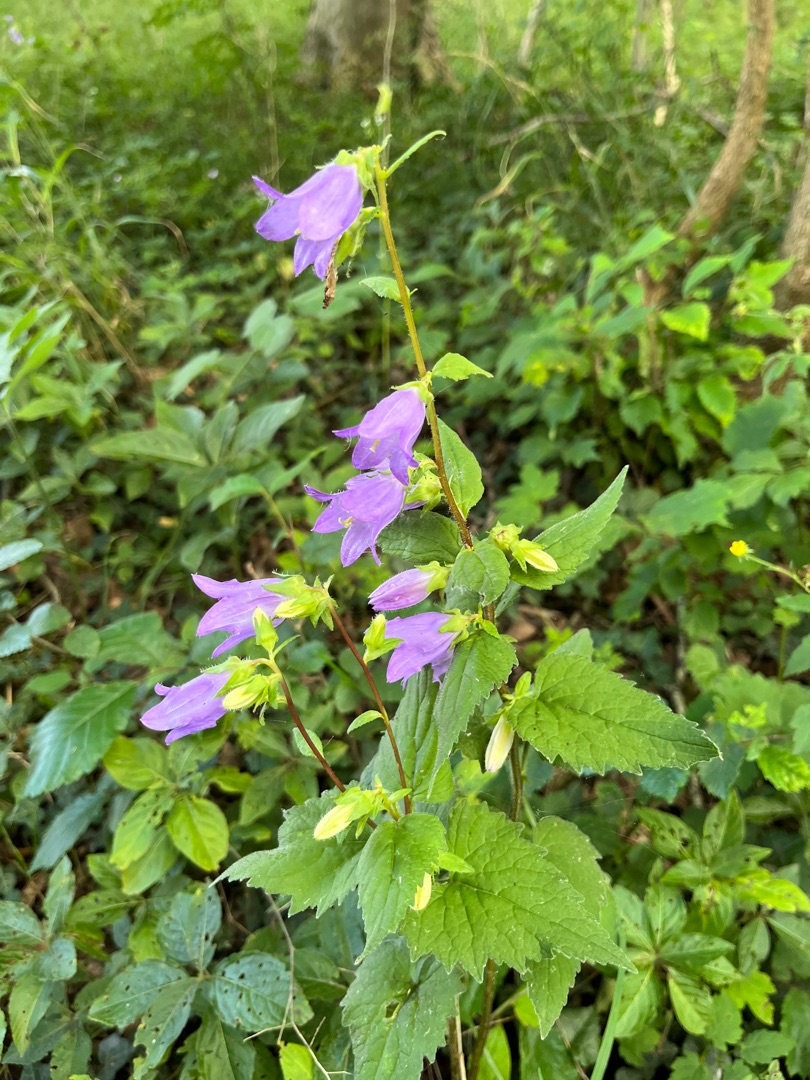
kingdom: Plantae
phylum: Tracheophyta
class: Magnoliopsida
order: Asterales
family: Campanulaceae
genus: Campanula
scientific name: Campanula trachelium
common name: Nælde-klokke
